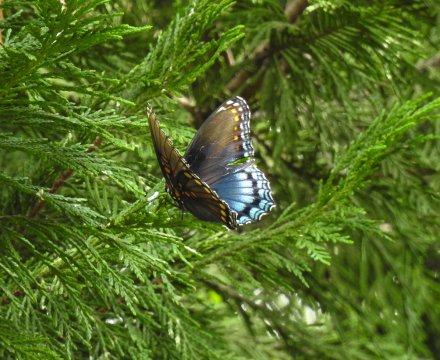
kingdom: Animalia
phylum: Arthropoda
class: Insecta
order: Lepidoptera
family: Nymphalidae
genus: Limenitis
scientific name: Limenitis arthemis
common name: Red-spotted Admiral
